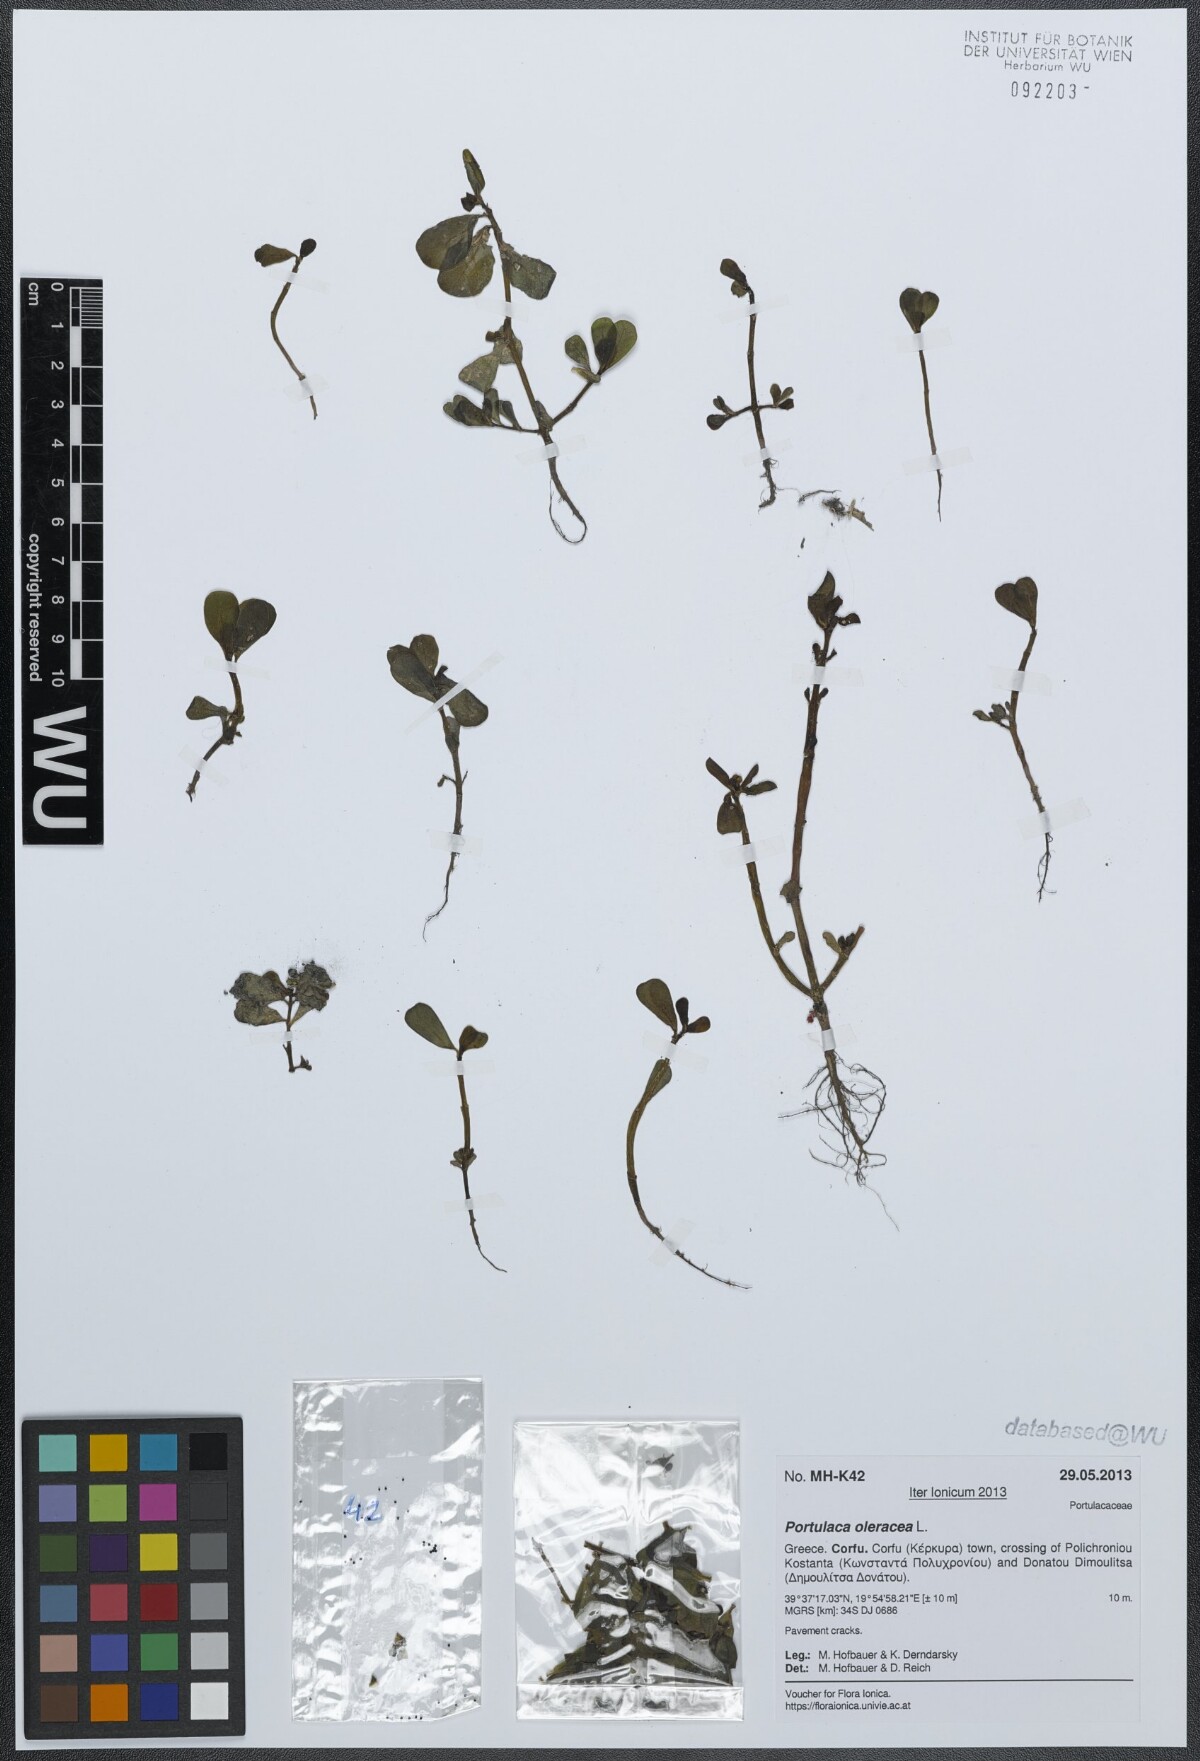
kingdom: Plantae
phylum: Tracheophyta
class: Magnoliopsida
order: Caryophyllales
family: Portulacaceae
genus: Portulaca
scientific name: Portulaca oleracea
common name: Common purslane
